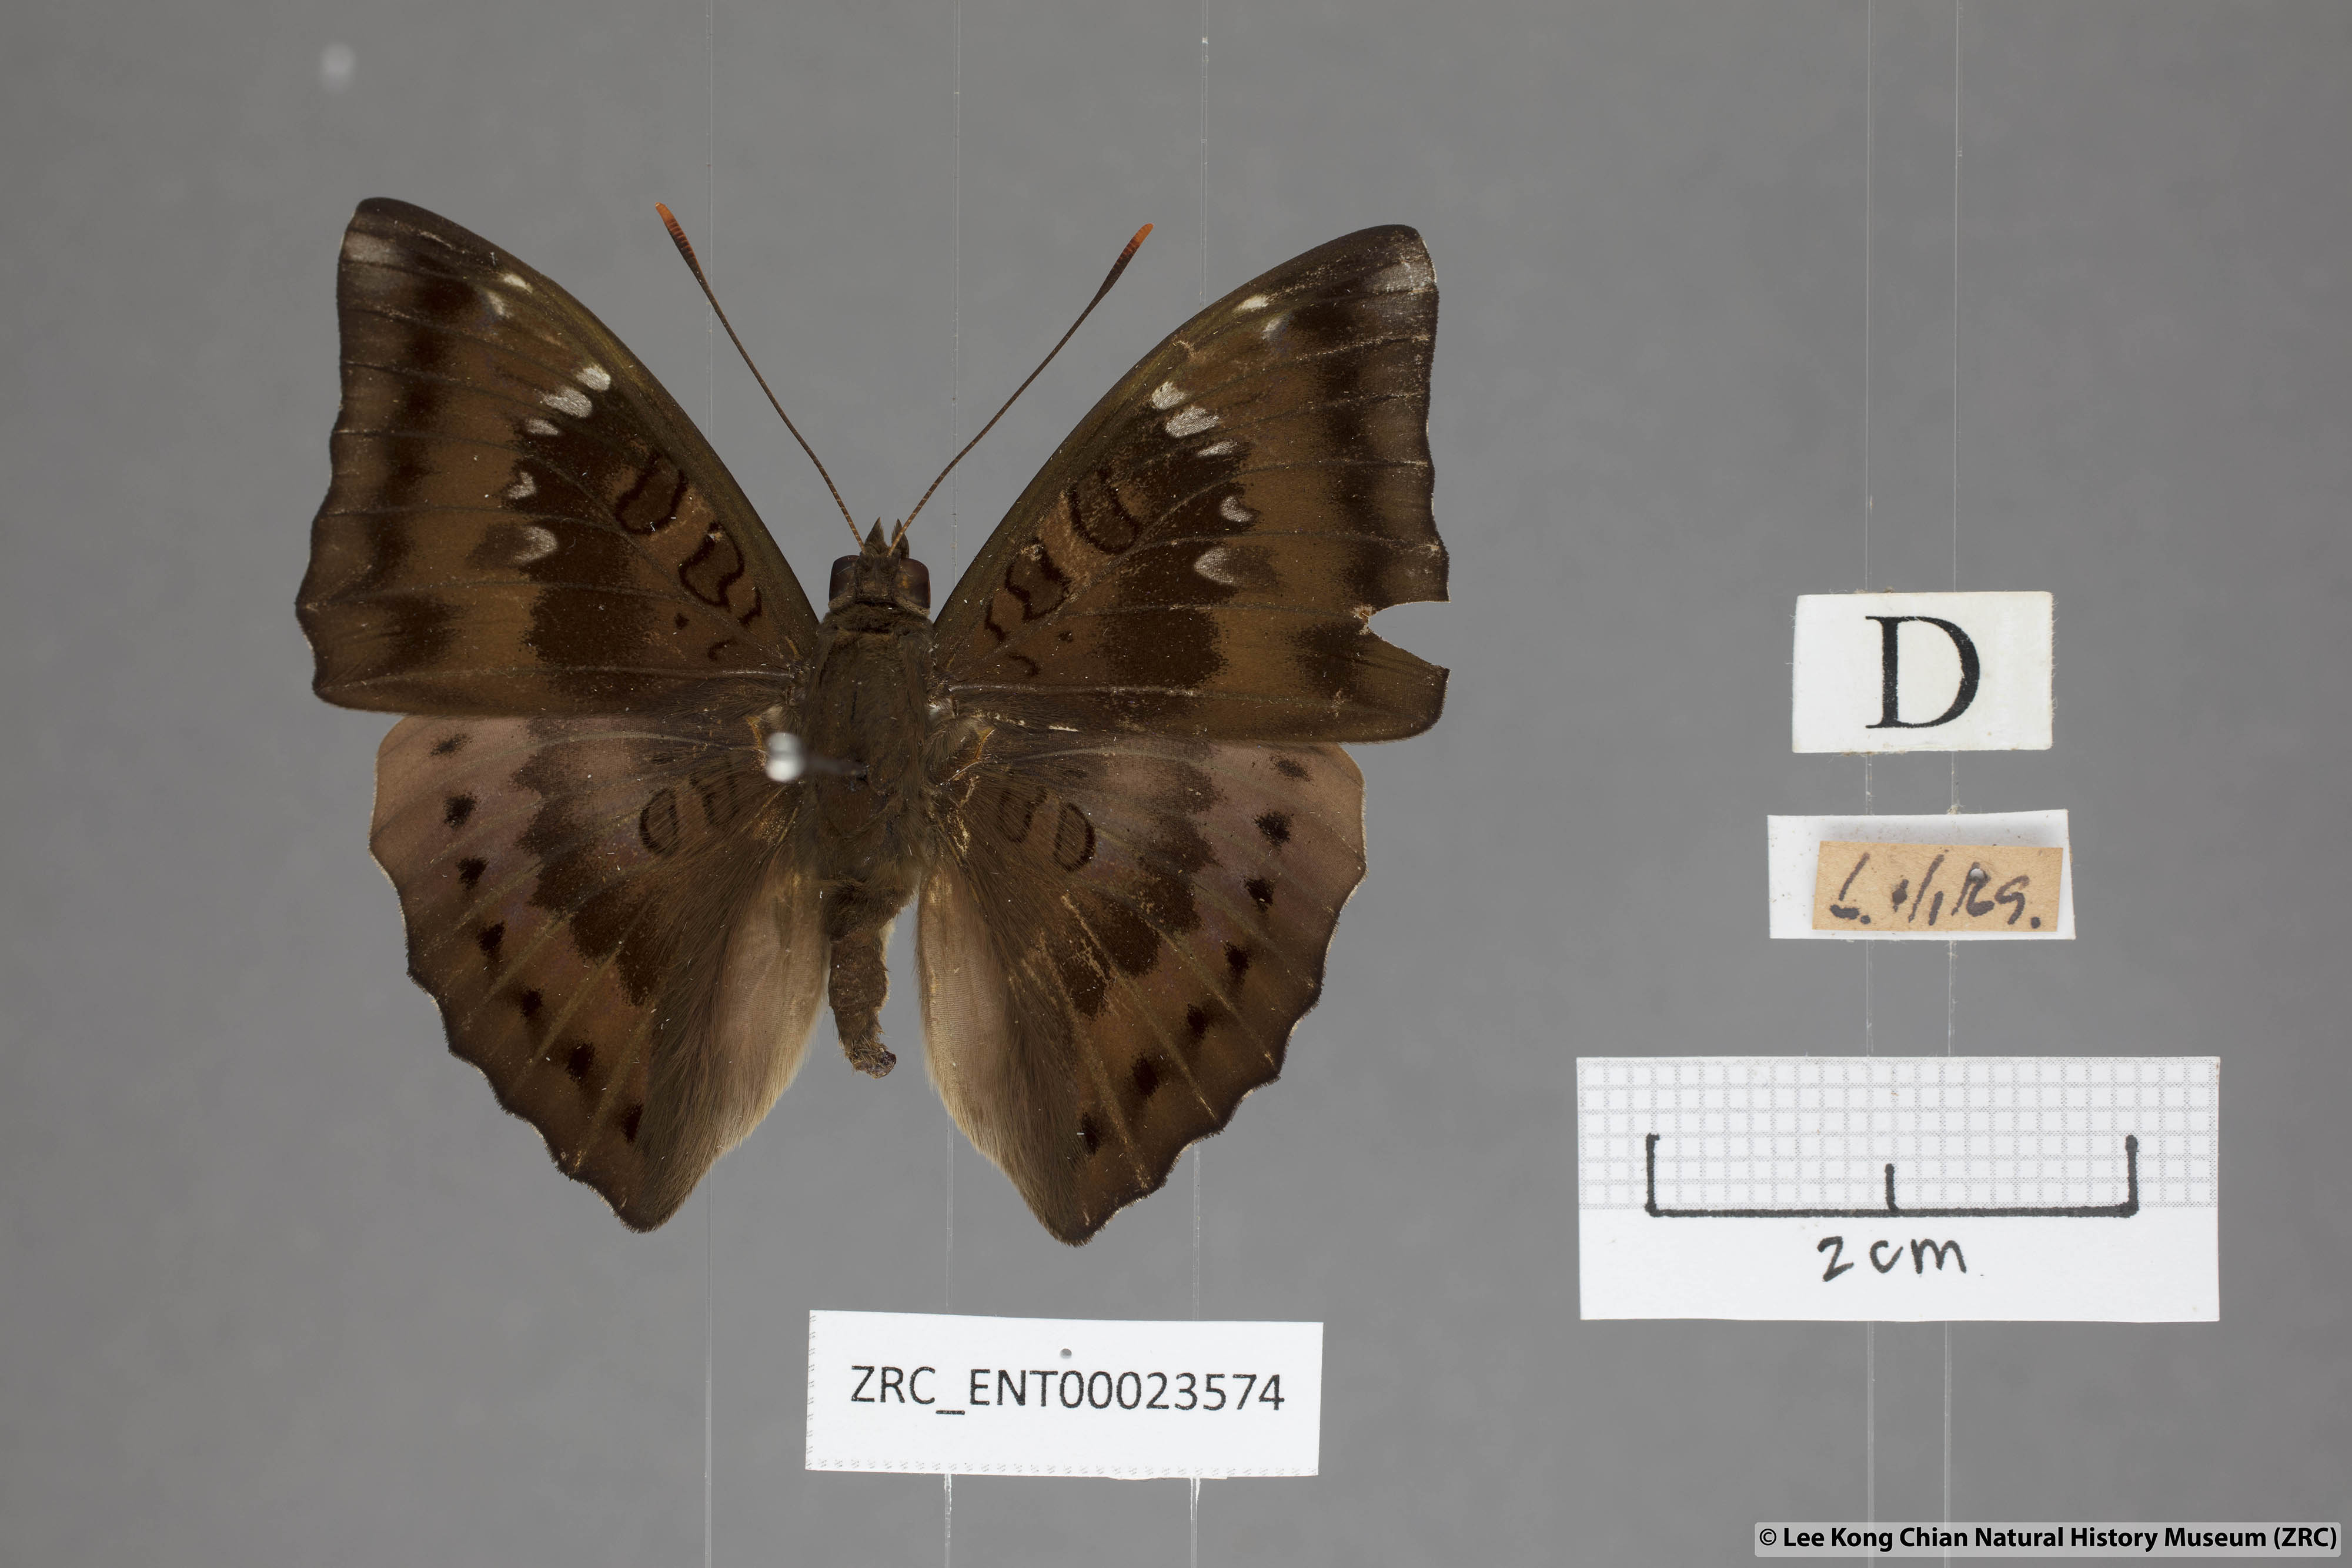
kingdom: Animalia
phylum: Arthropoda
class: Insecta
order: Lepidoptera
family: Nymphalidae
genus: Euthalia
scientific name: Euthalia aconthea
